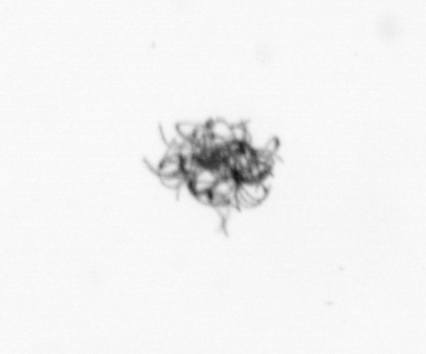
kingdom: Bacteria
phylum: Cyanobacteria
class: Cyanobacteriia
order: Cyanobacteriales
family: Microcoleaceae
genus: Trichodesmium
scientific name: Trichodesmium
